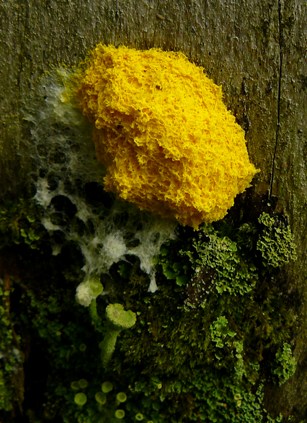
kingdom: Protozoa
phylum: Mycetozoa
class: Myxomycetes
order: Physarales
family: Physaraceae
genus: Fuligo
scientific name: Fuligo septica
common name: gul troldsmør
